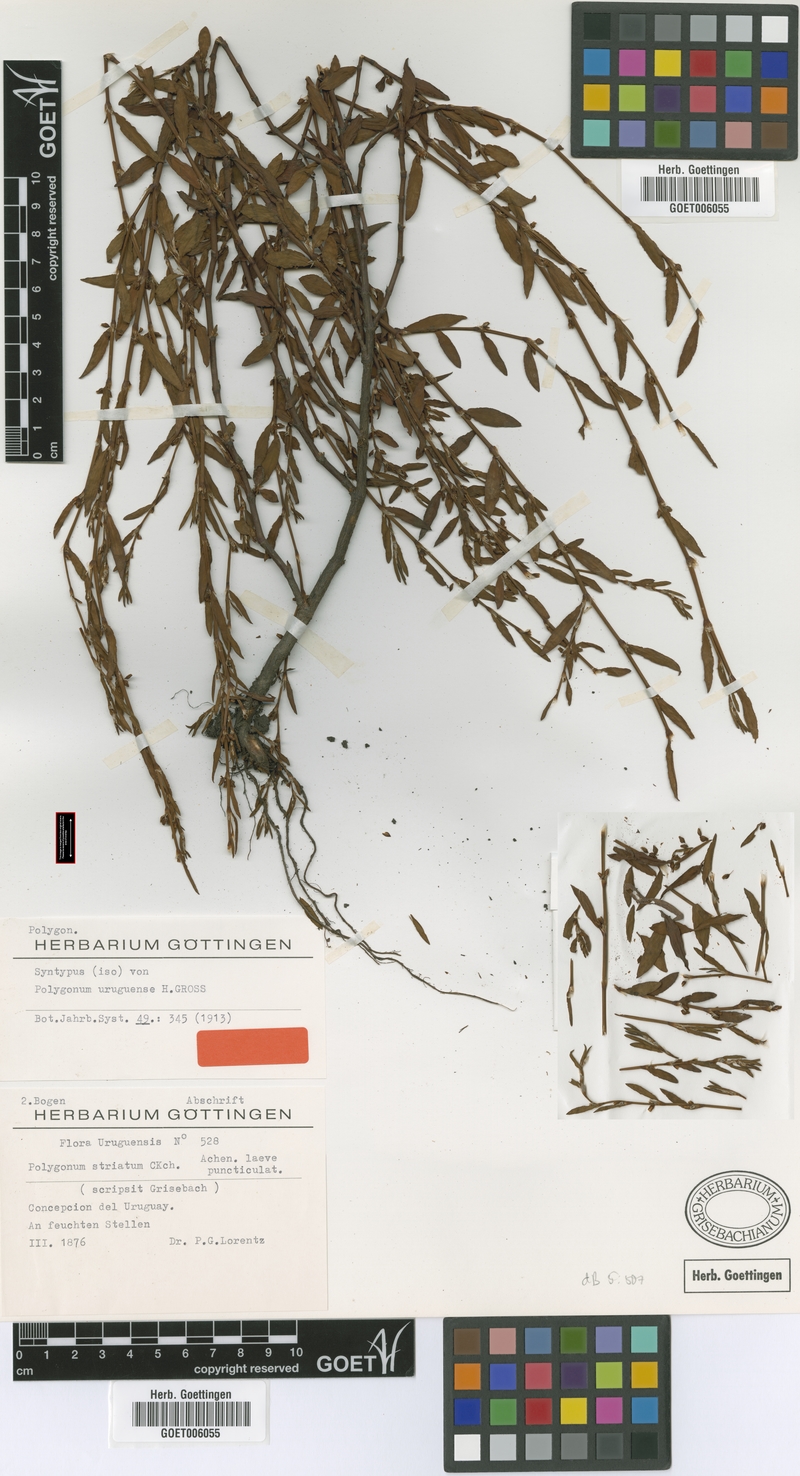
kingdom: Plantae
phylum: Tracheophyta
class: Magnoliopsida
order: Caryophyllales
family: Polygonaceae
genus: Polygonum
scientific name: Polygonum aviculare
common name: Prostrate knotweed
